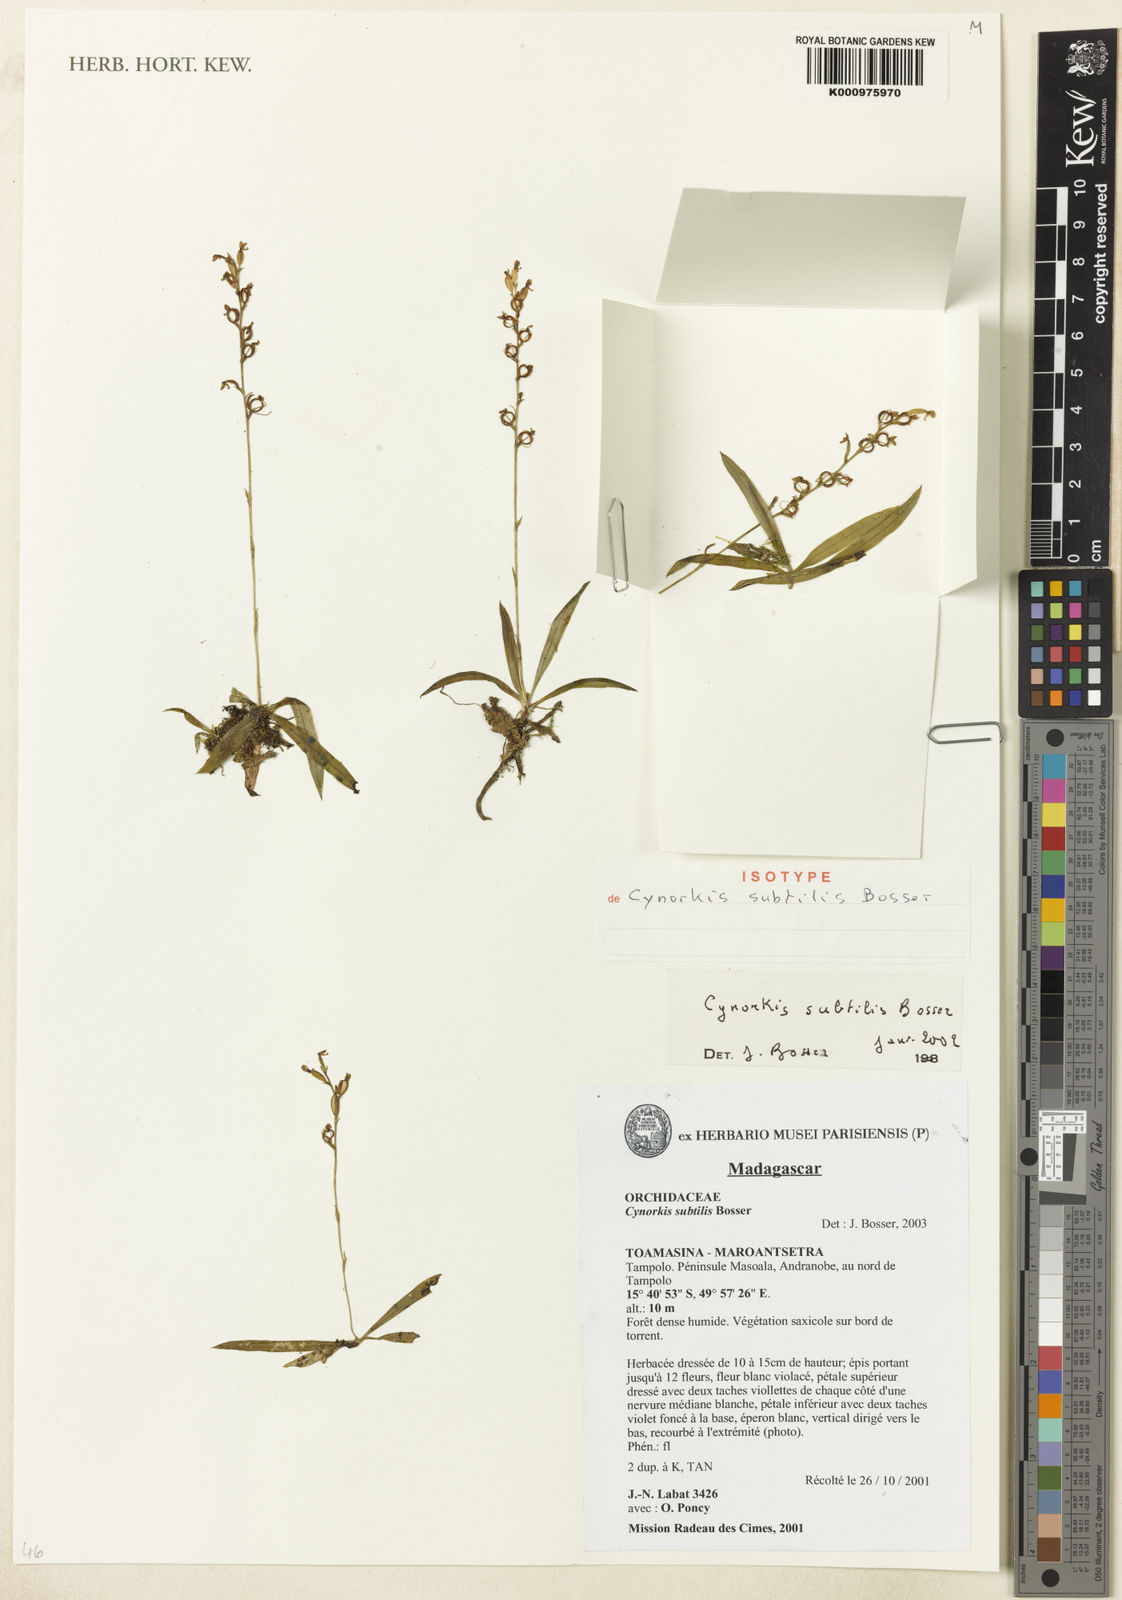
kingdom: Plantae
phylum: Tracheophyta
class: Liliopsida
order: Asparagales
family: Orchidaceae
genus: Cynorkis
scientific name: Cynorkis subtilis
